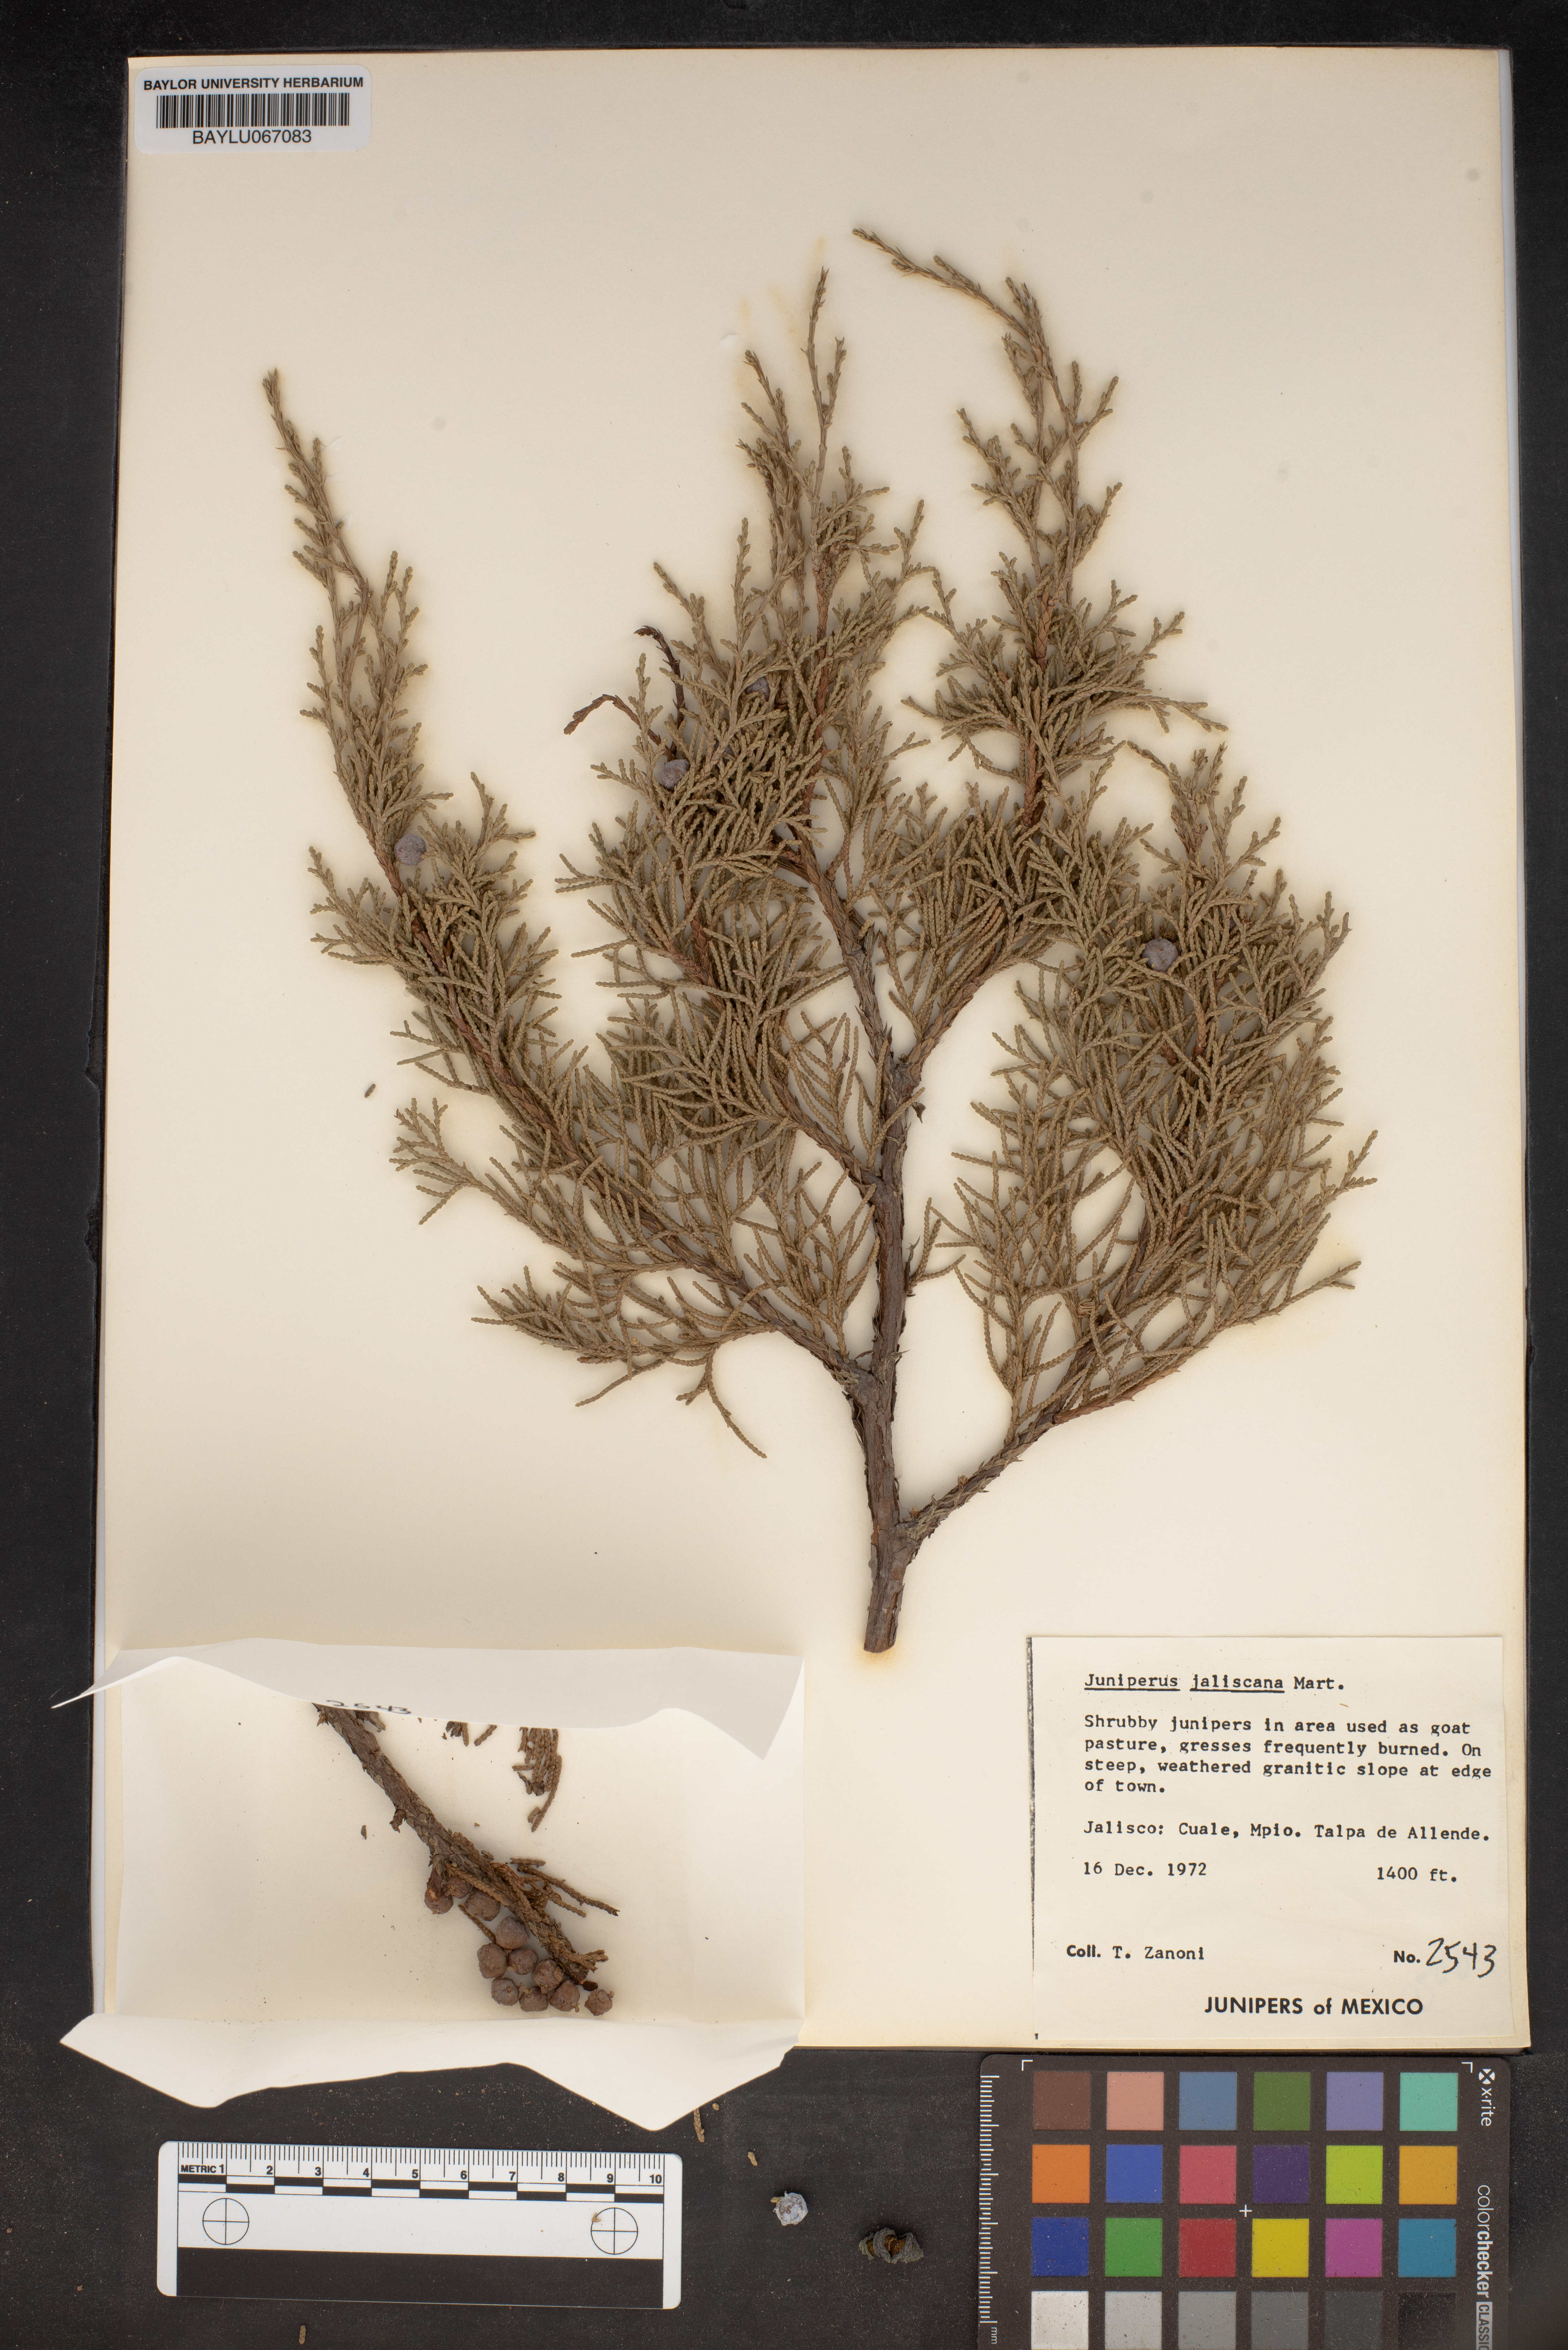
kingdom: Plantae
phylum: Tracheophyta
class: Pinopsida
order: Pinales
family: Cupressaceae
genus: Juniperus
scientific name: Juniperus jaliscana
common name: Jalisco juniper
